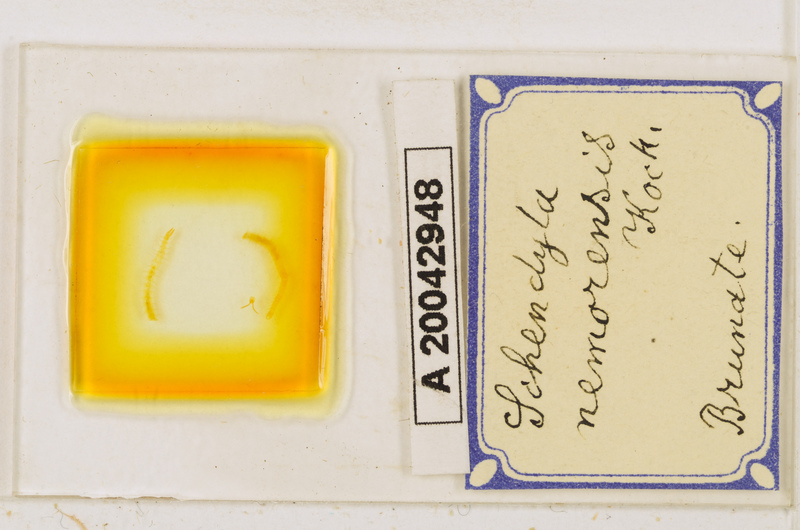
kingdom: Animalia
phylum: Arthropoda
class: Chilopoda
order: Geophilomorpha
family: Schendylidae
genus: Schendyla
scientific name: Schendyla nemorensis
